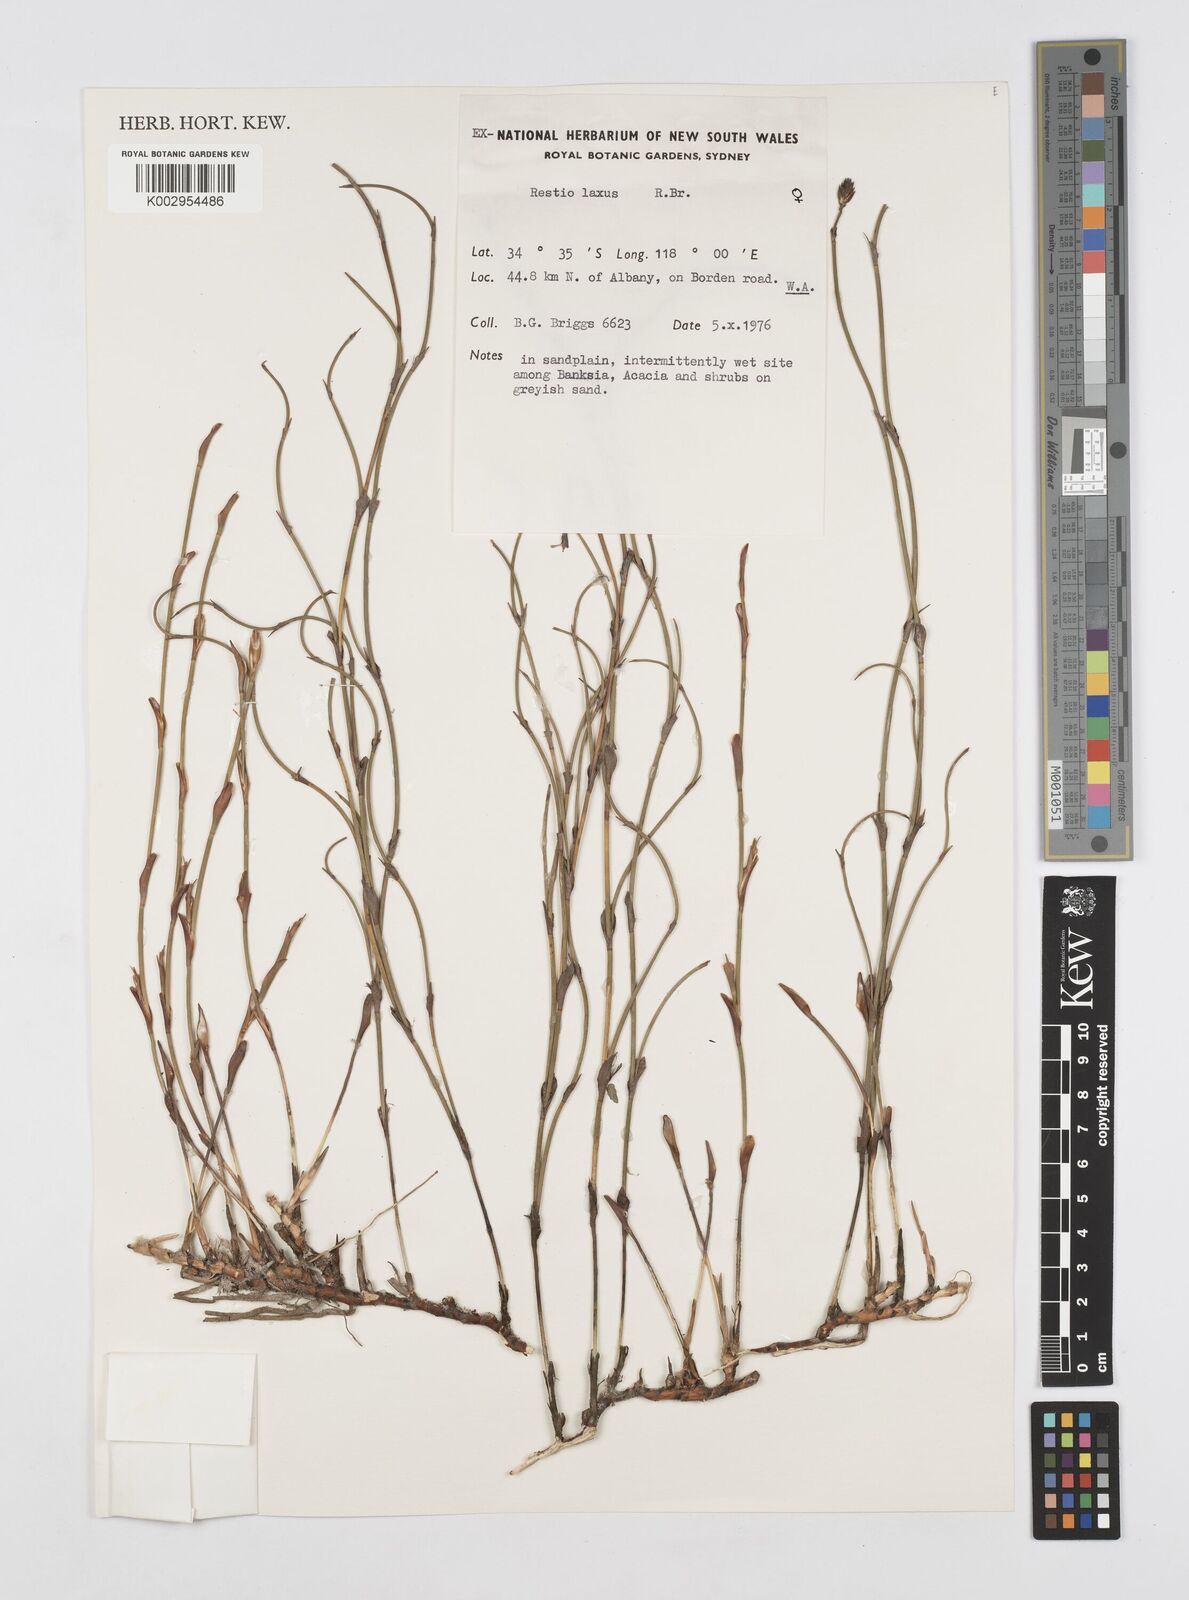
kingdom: Plantae
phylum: Tracheophyta
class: Liliopsida
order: Poales
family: Restionaceae
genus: Chordifex
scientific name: Chordifex laxus
